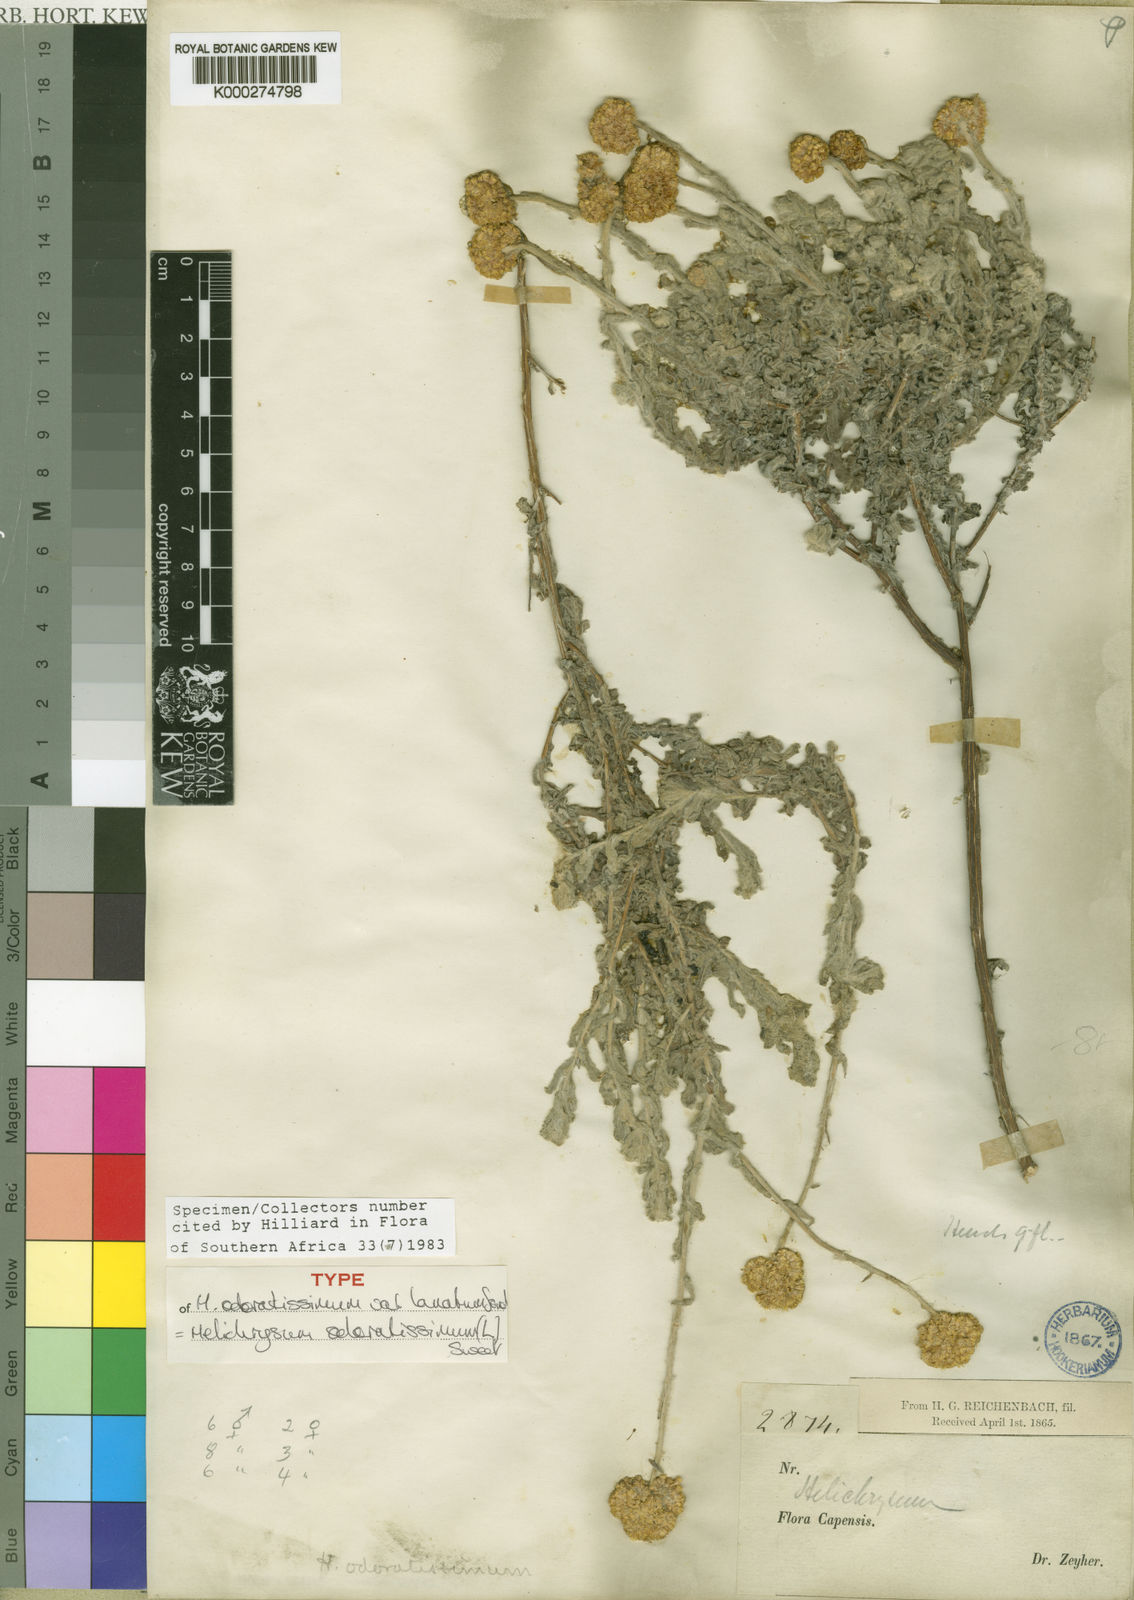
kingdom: Plantae
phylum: Tracheophyta
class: Magnoliopsida
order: Asterales
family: Asteraceae
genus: Helichrysum
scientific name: Helichrysum odoratissimum
